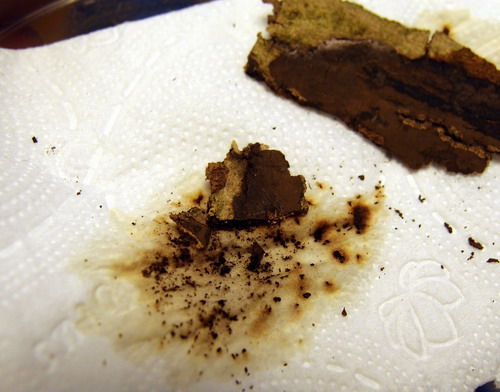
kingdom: Fungi
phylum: Ascomycota
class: Sordariomycetes
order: Xylariales
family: Hypoxylaceae
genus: Hypoxylon
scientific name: Hypoxylon petriniae
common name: nedsænket kulbær
